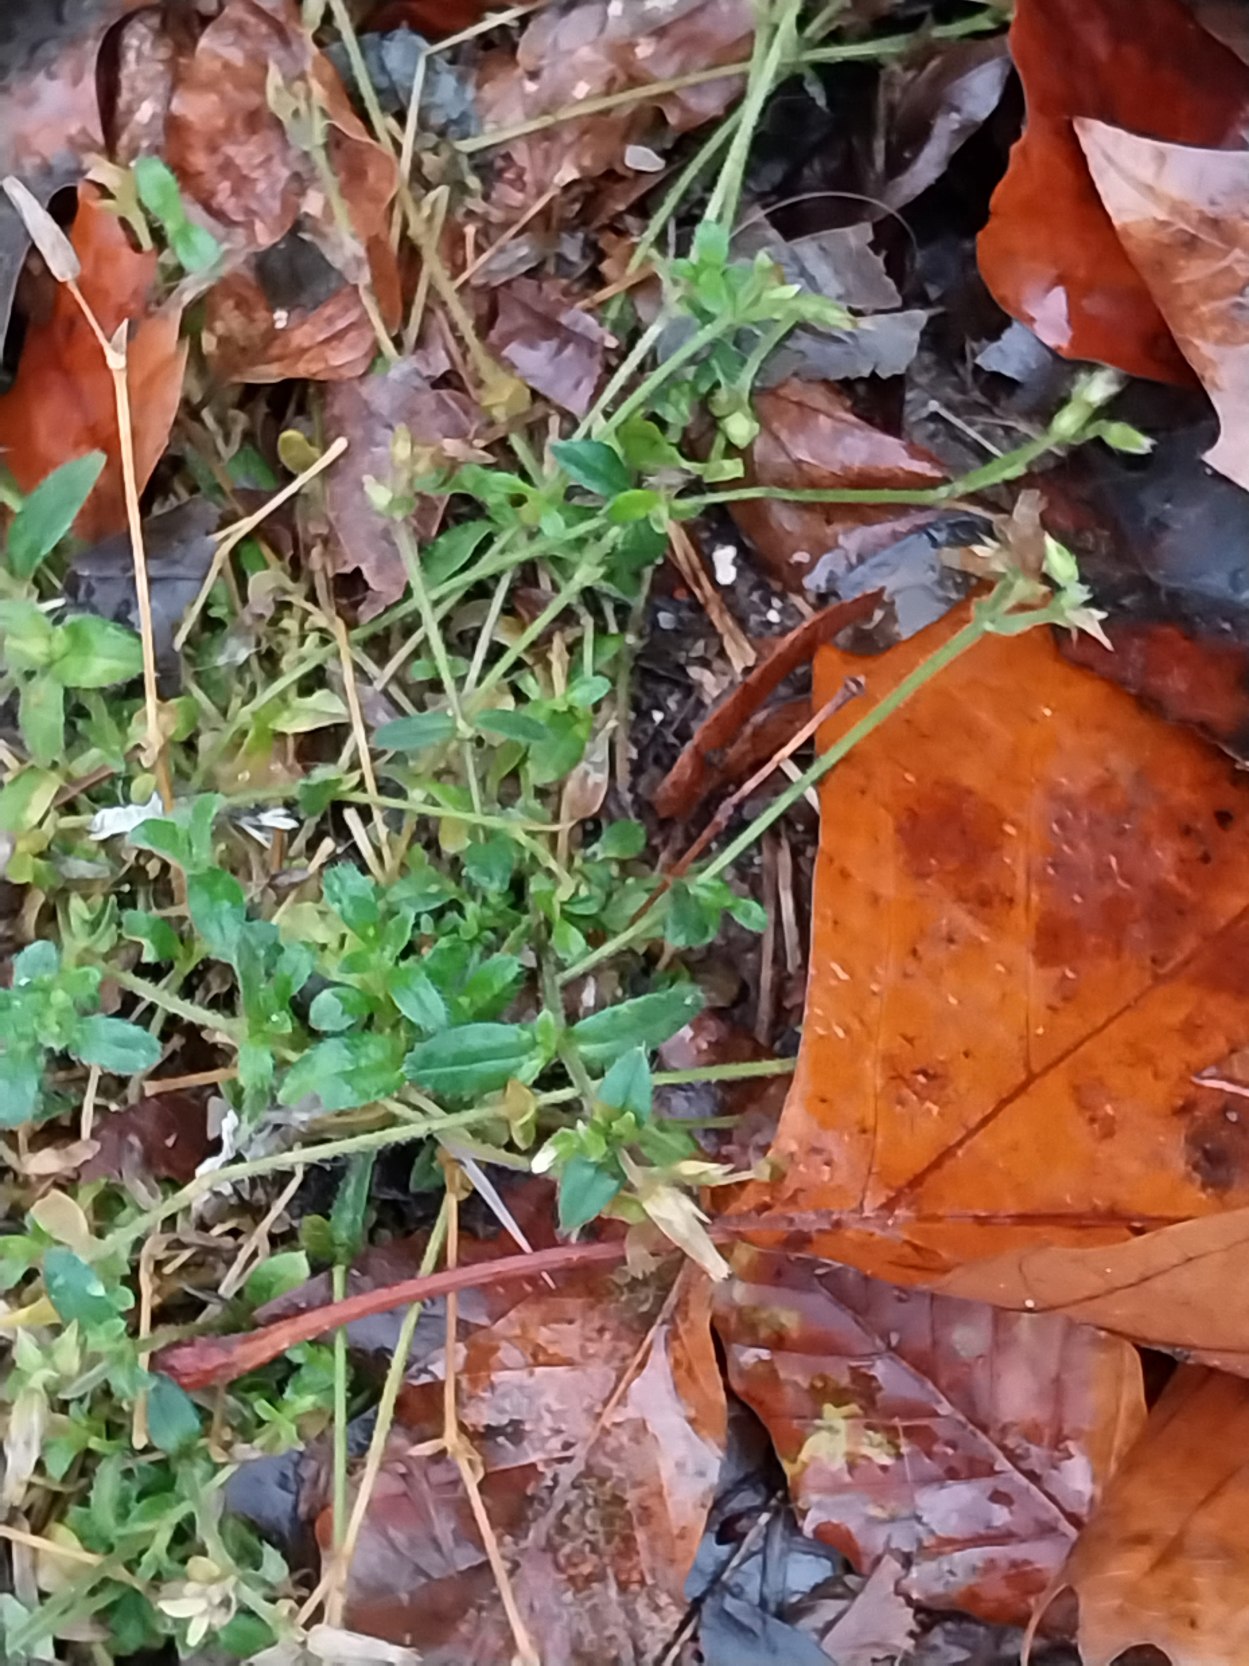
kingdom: Plantae
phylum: Tracheophyta
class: Magnoliopsida
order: Caryophyllales
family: Caryophyllaceae
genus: Cerastium
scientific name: Cerastium fontanum
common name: Almindelig hønsetarm
